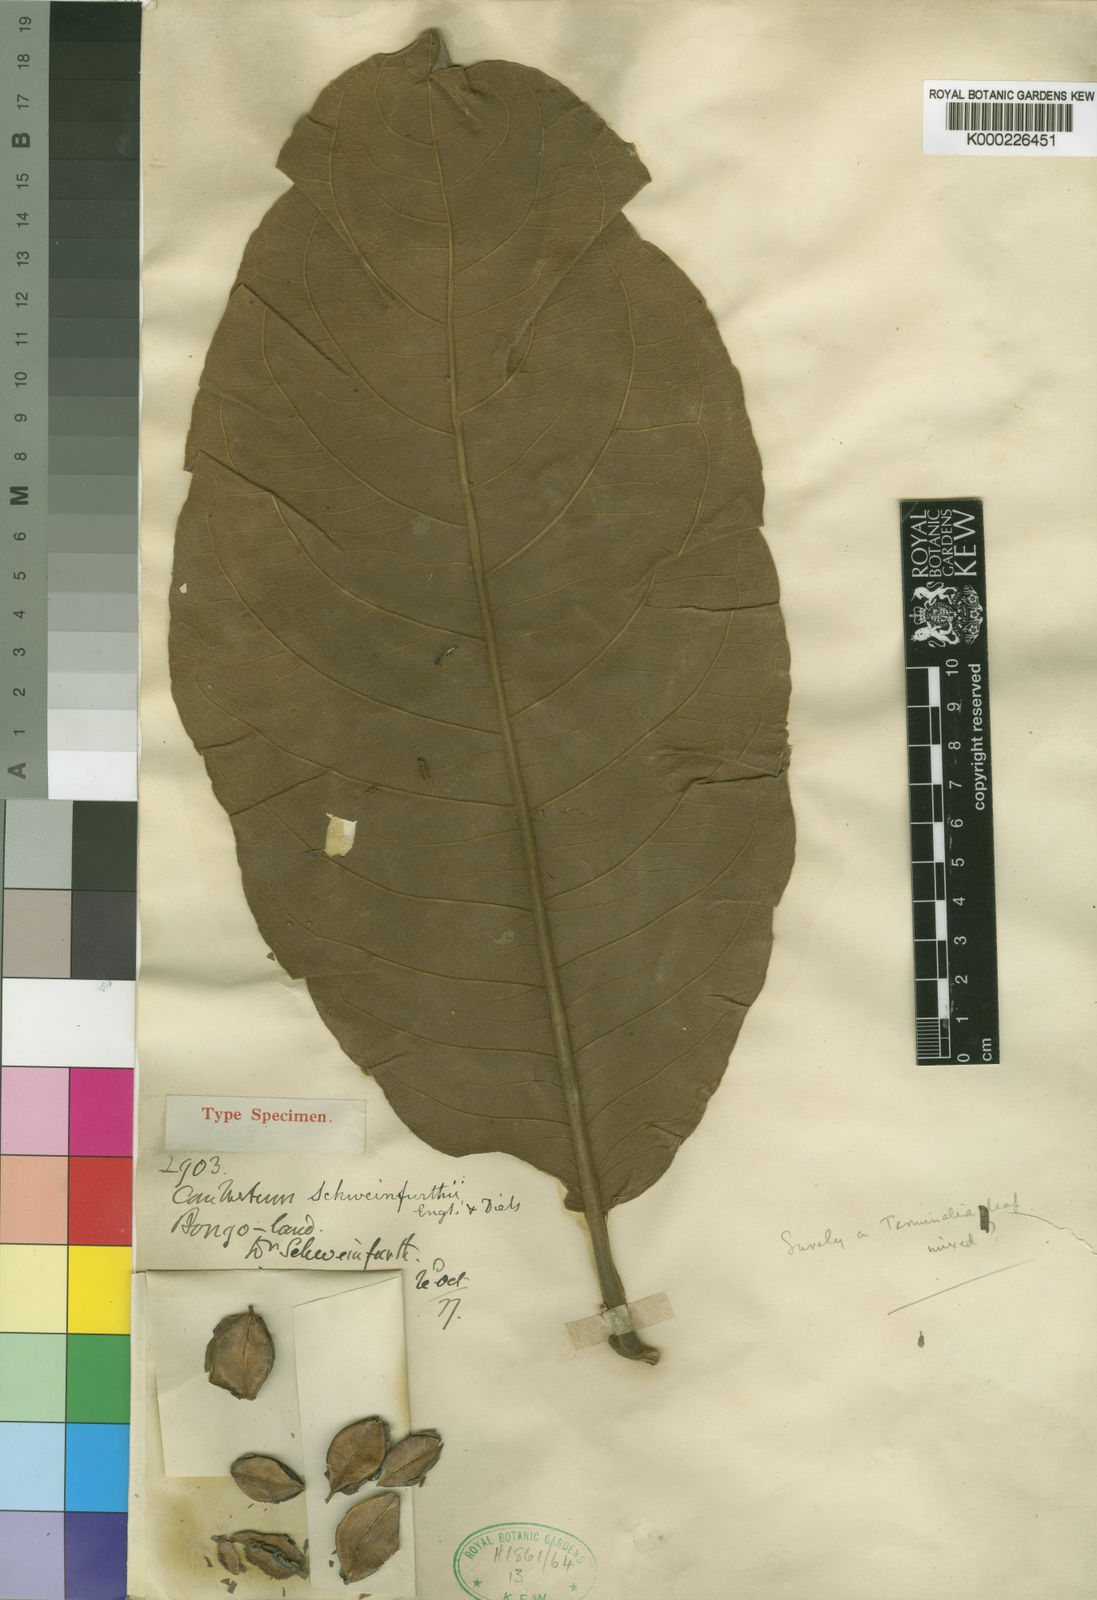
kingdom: Plantae
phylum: Tracheophyta
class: Magnoliopsida
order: Myrtales
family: Combretaceae
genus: Combretum
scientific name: Combretum schweinfurthii
